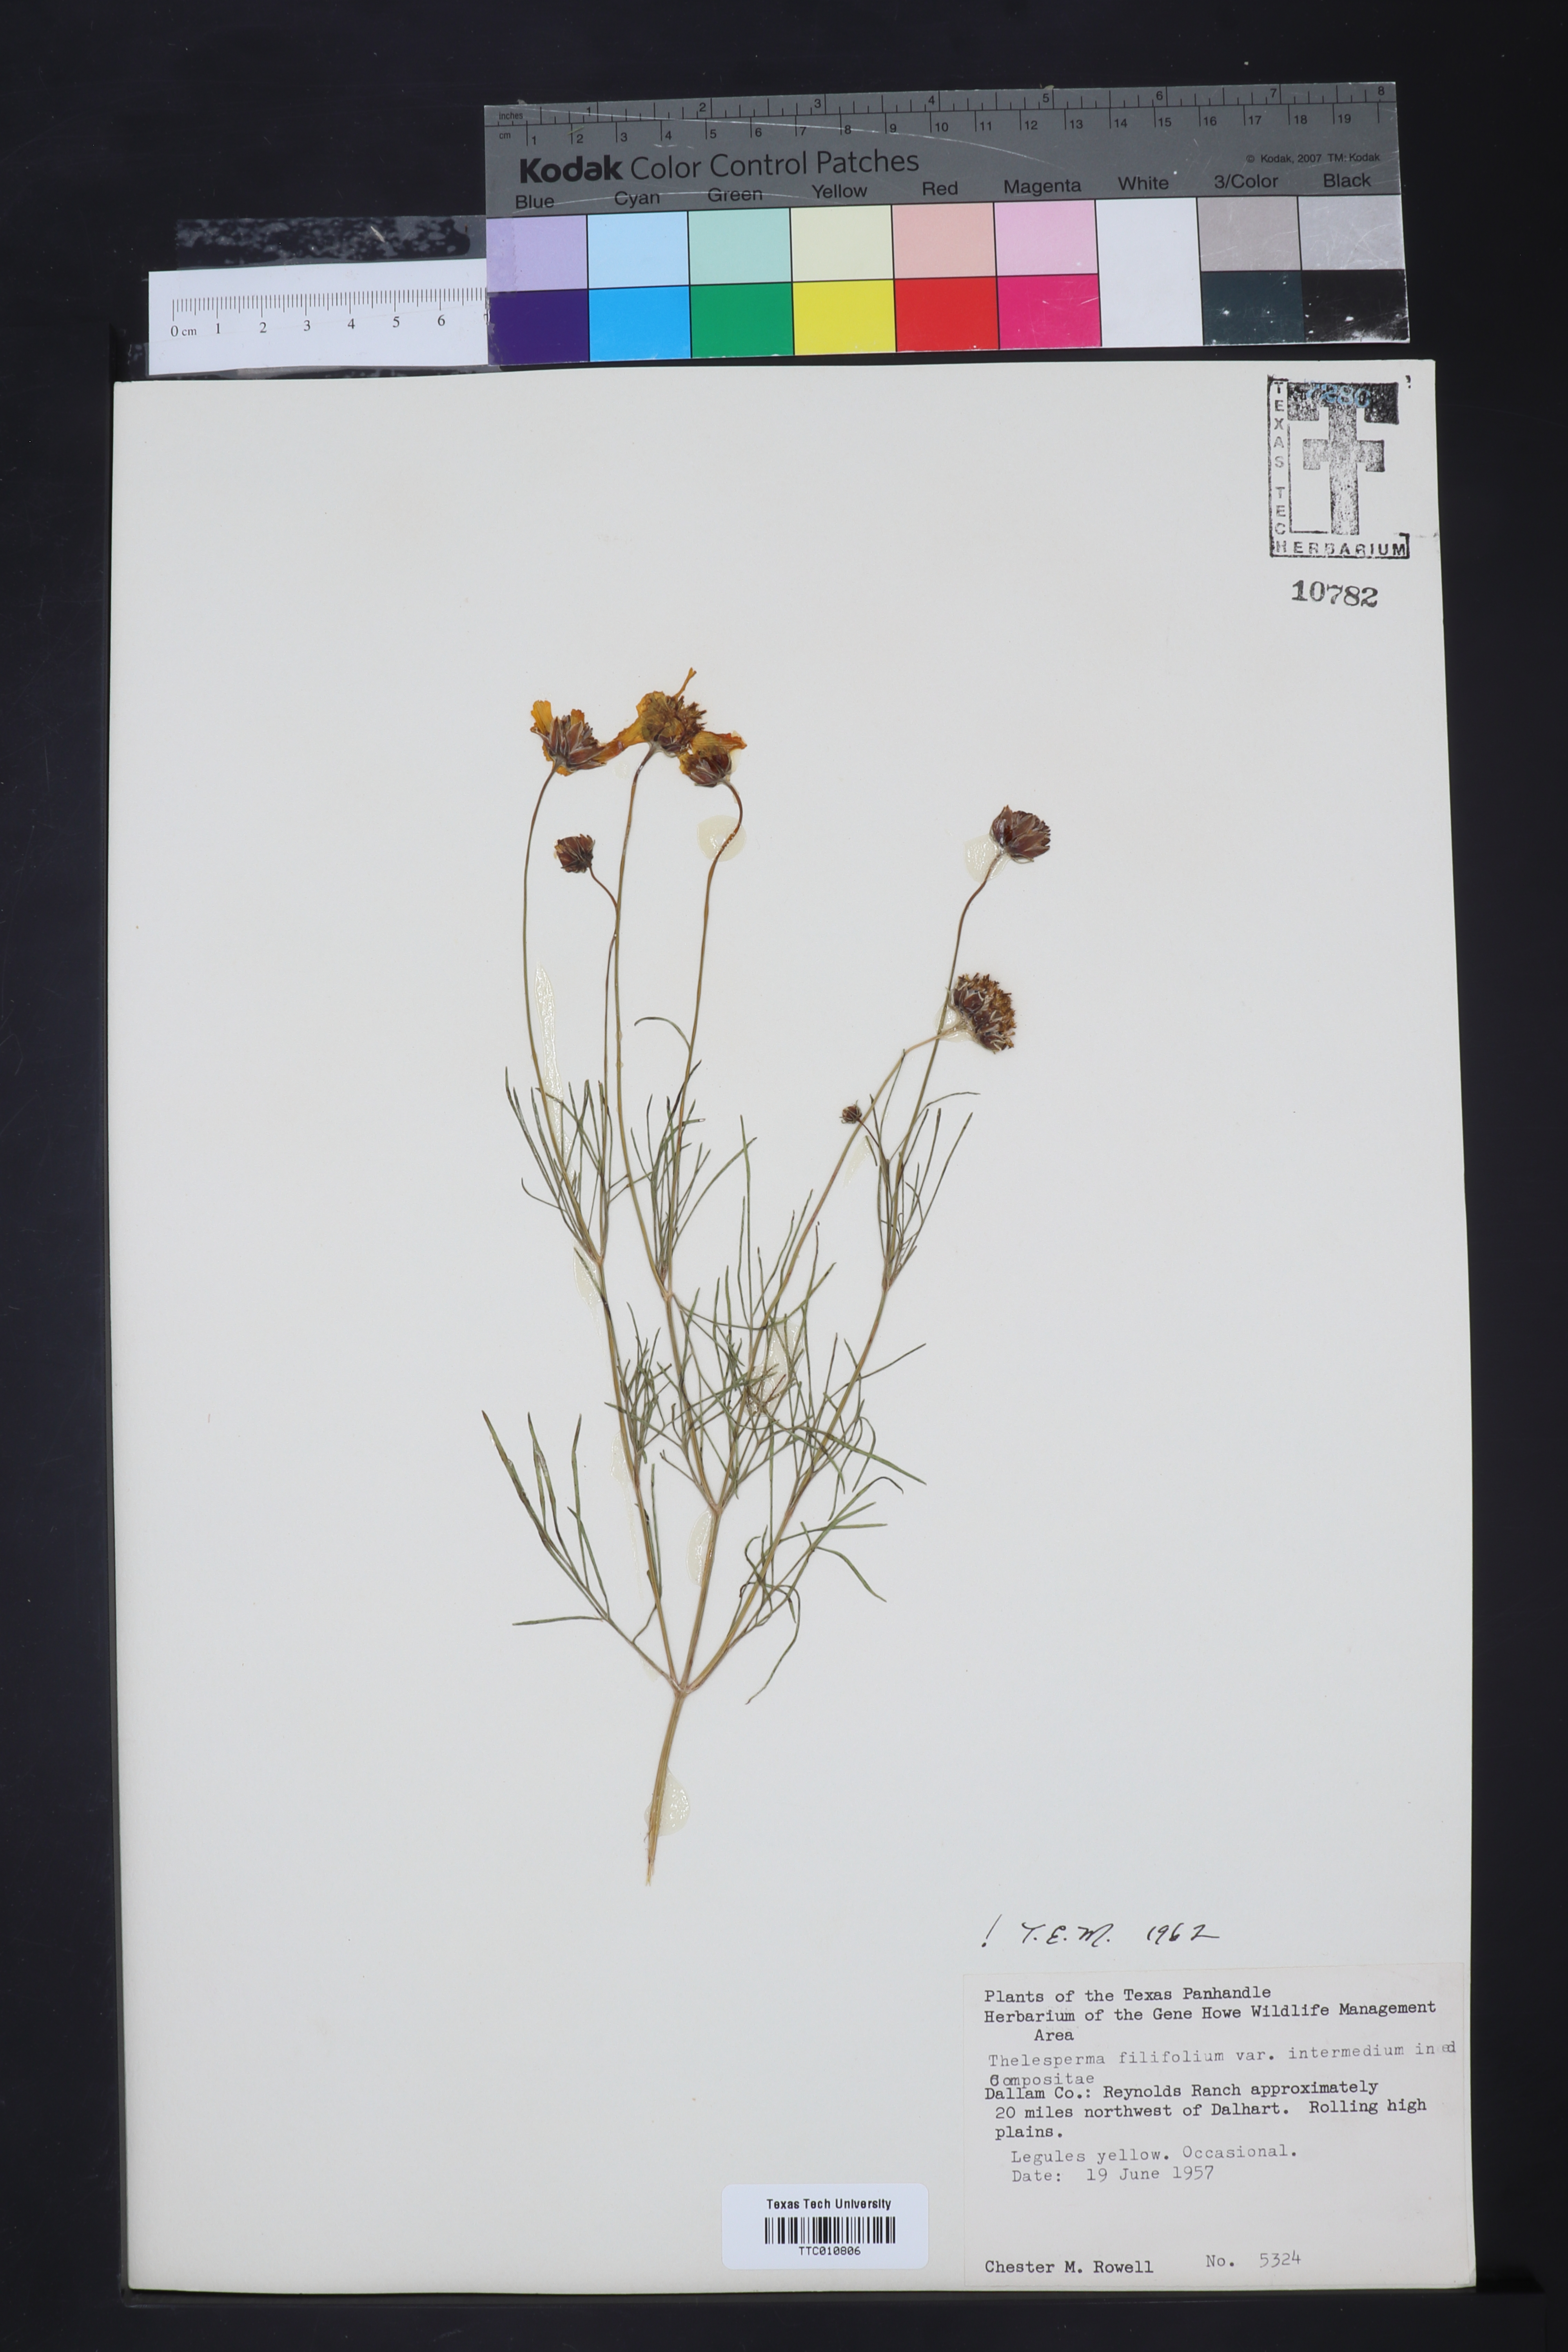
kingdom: Plantae
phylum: Tracheophyta
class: Magnoliopsida
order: Asterales
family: Asteraceae
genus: Thelesperma
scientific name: Thelesperma filifolium
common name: Stiff greenthread
